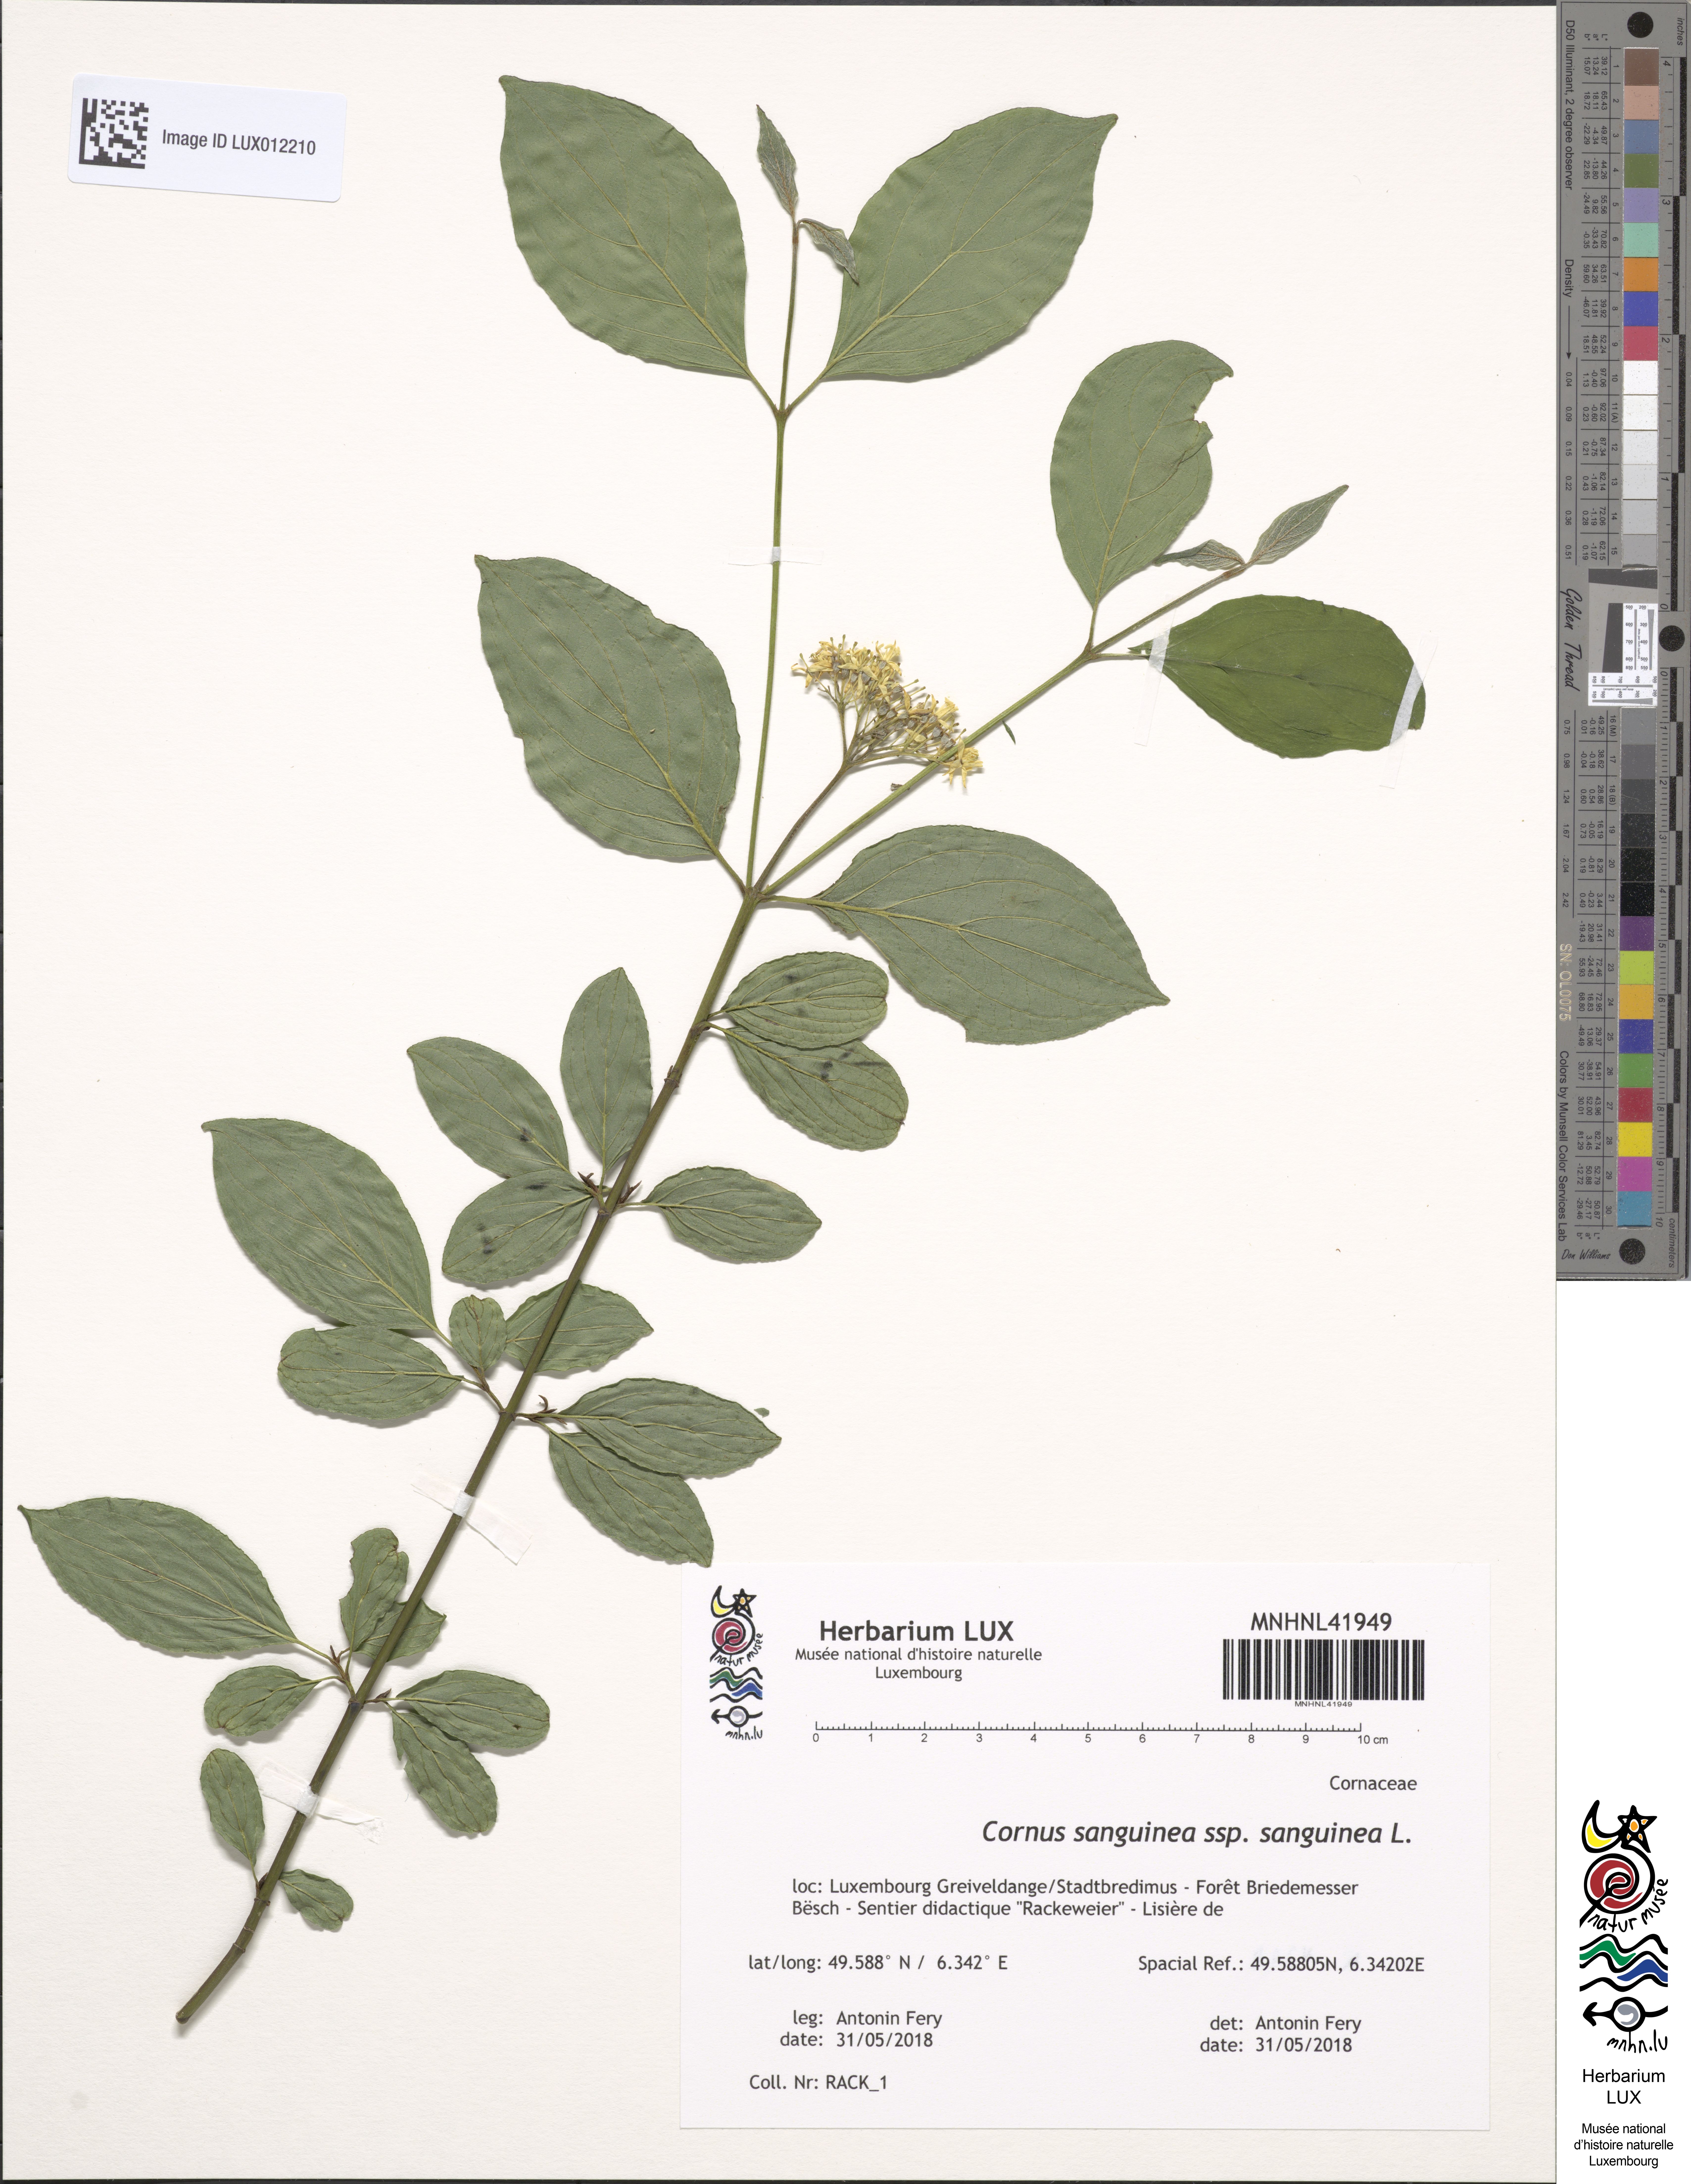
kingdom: Plantae
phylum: Tracheophyta
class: Magnoliopsida
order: Cornales
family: Cornaceae
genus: Cornus
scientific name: Cornus sanguinea
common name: Dogwood
